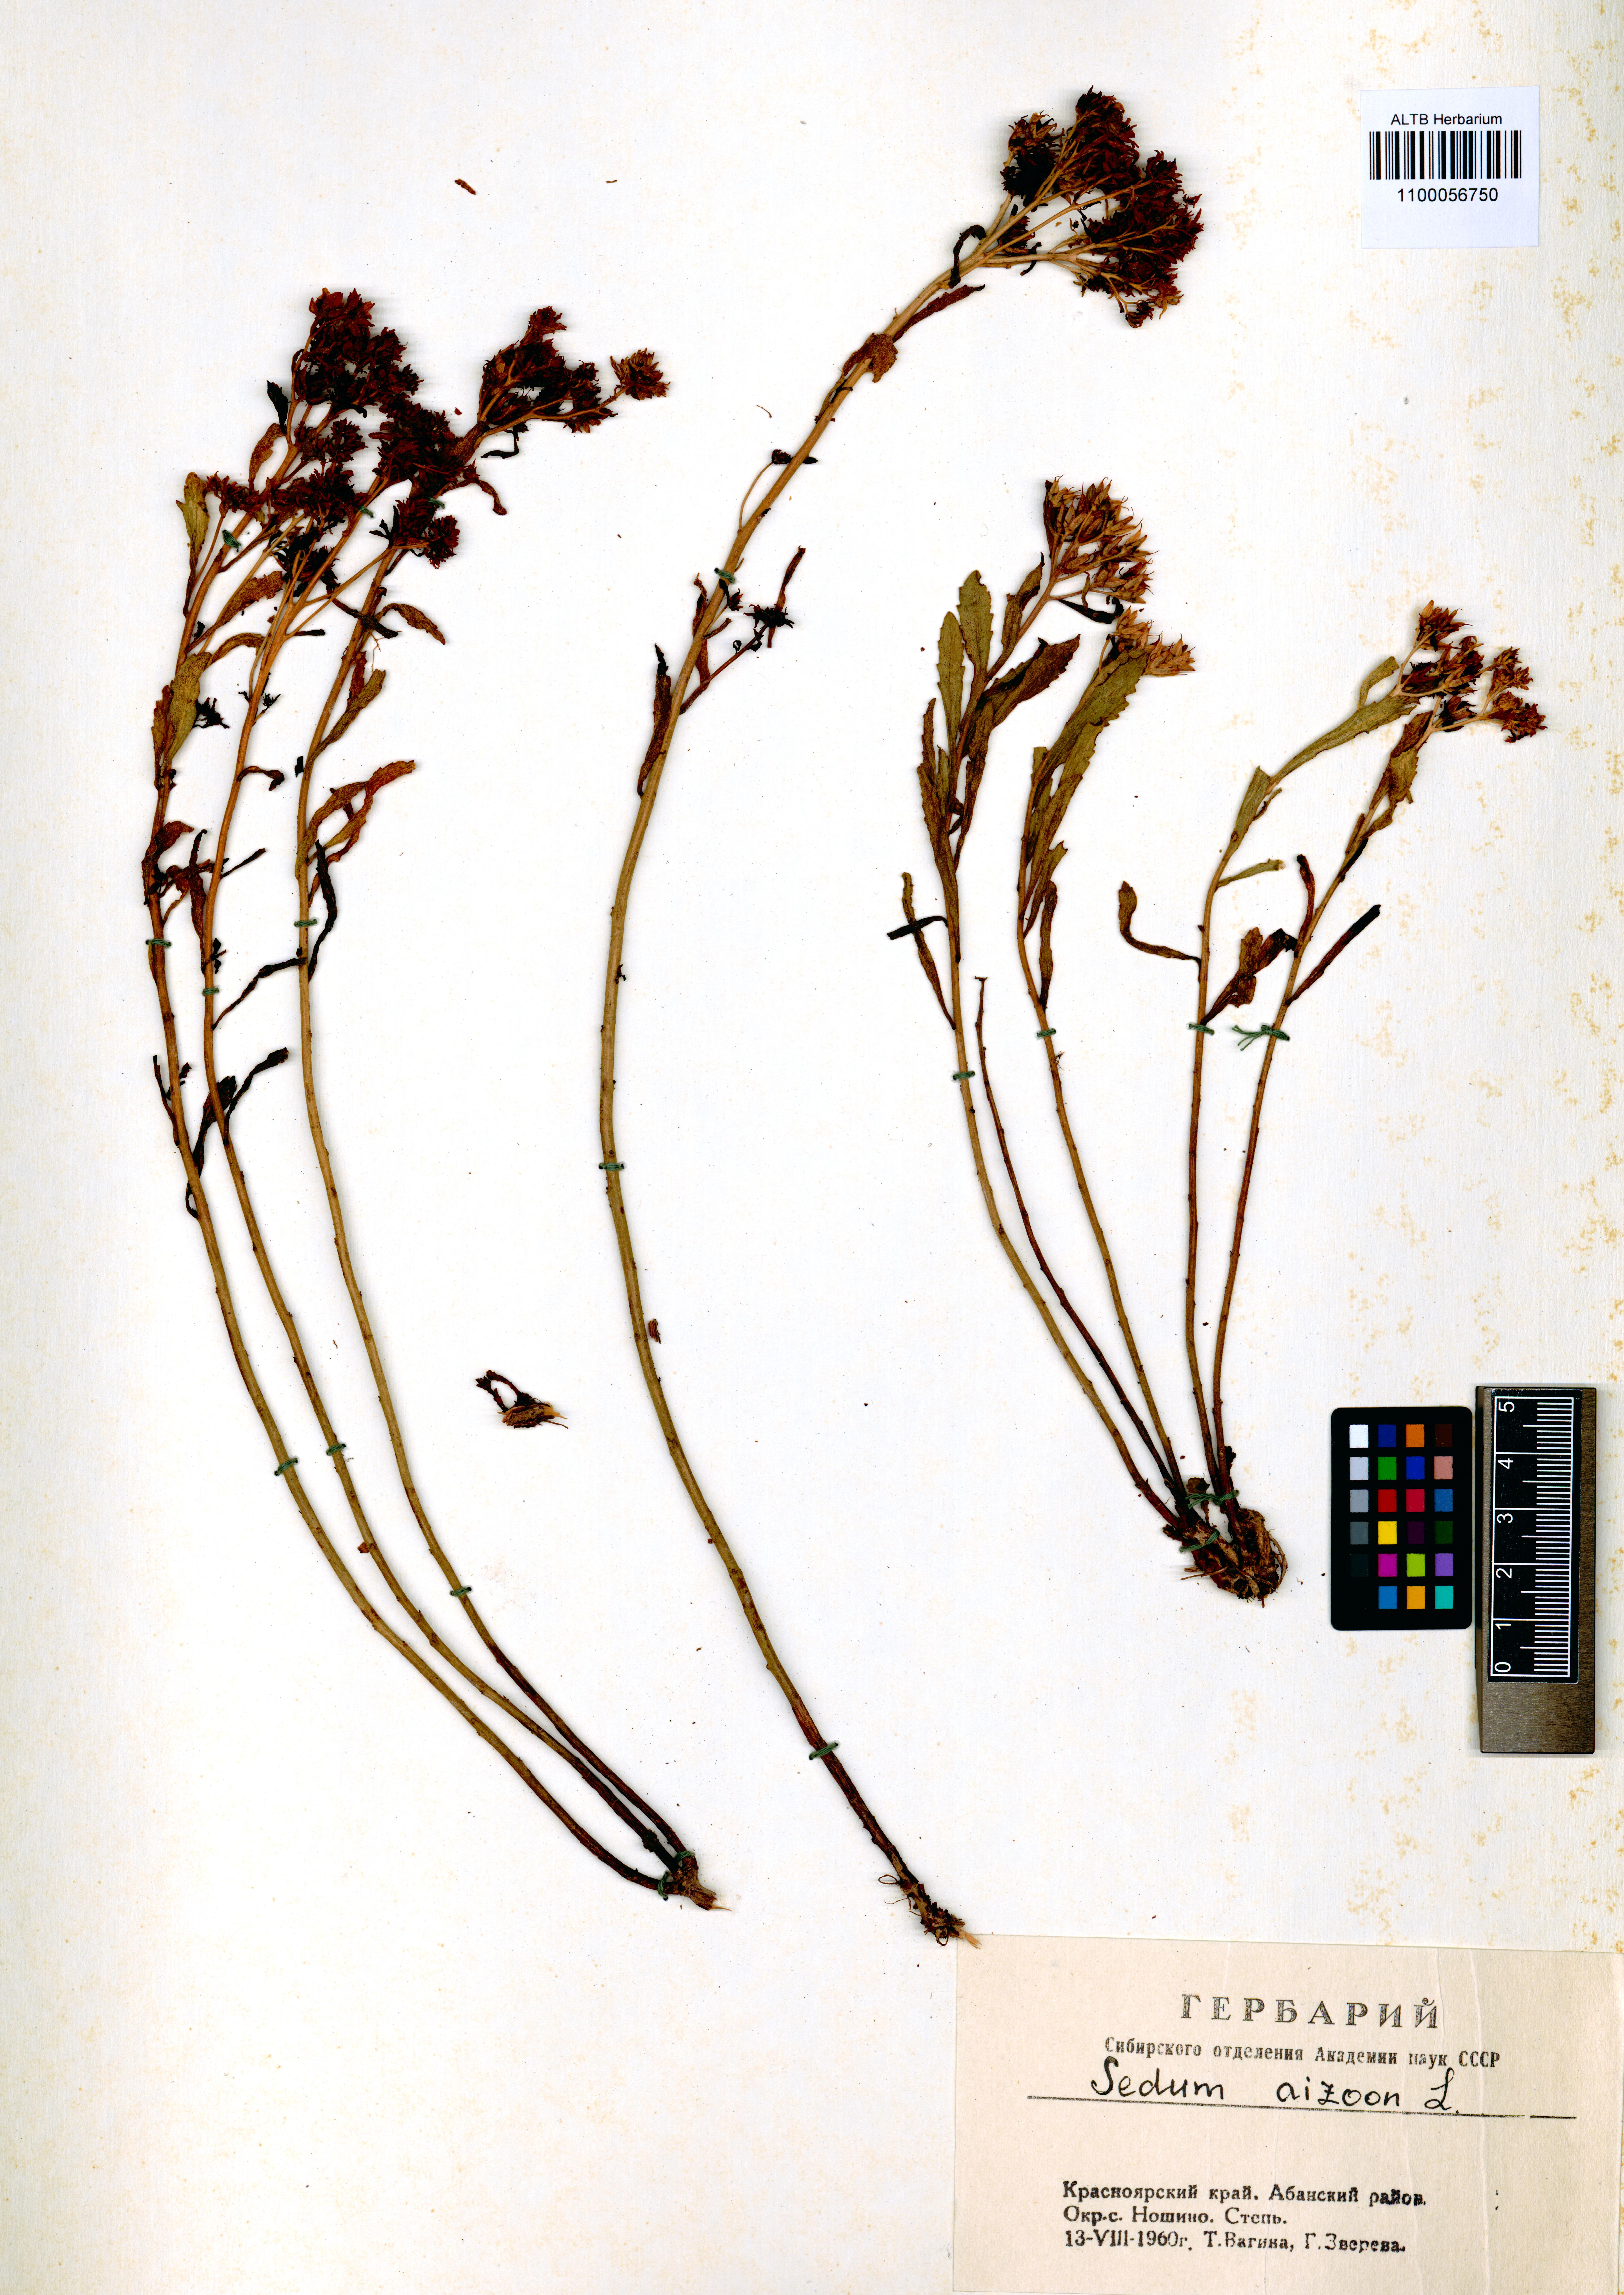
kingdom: Plantae
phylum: Tracheophyta
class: Magnoliopsida
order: Saxifragales
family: Crassulaceae
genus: Phedimus
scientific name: Phedimus aizoon
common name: Orpin aizoon
